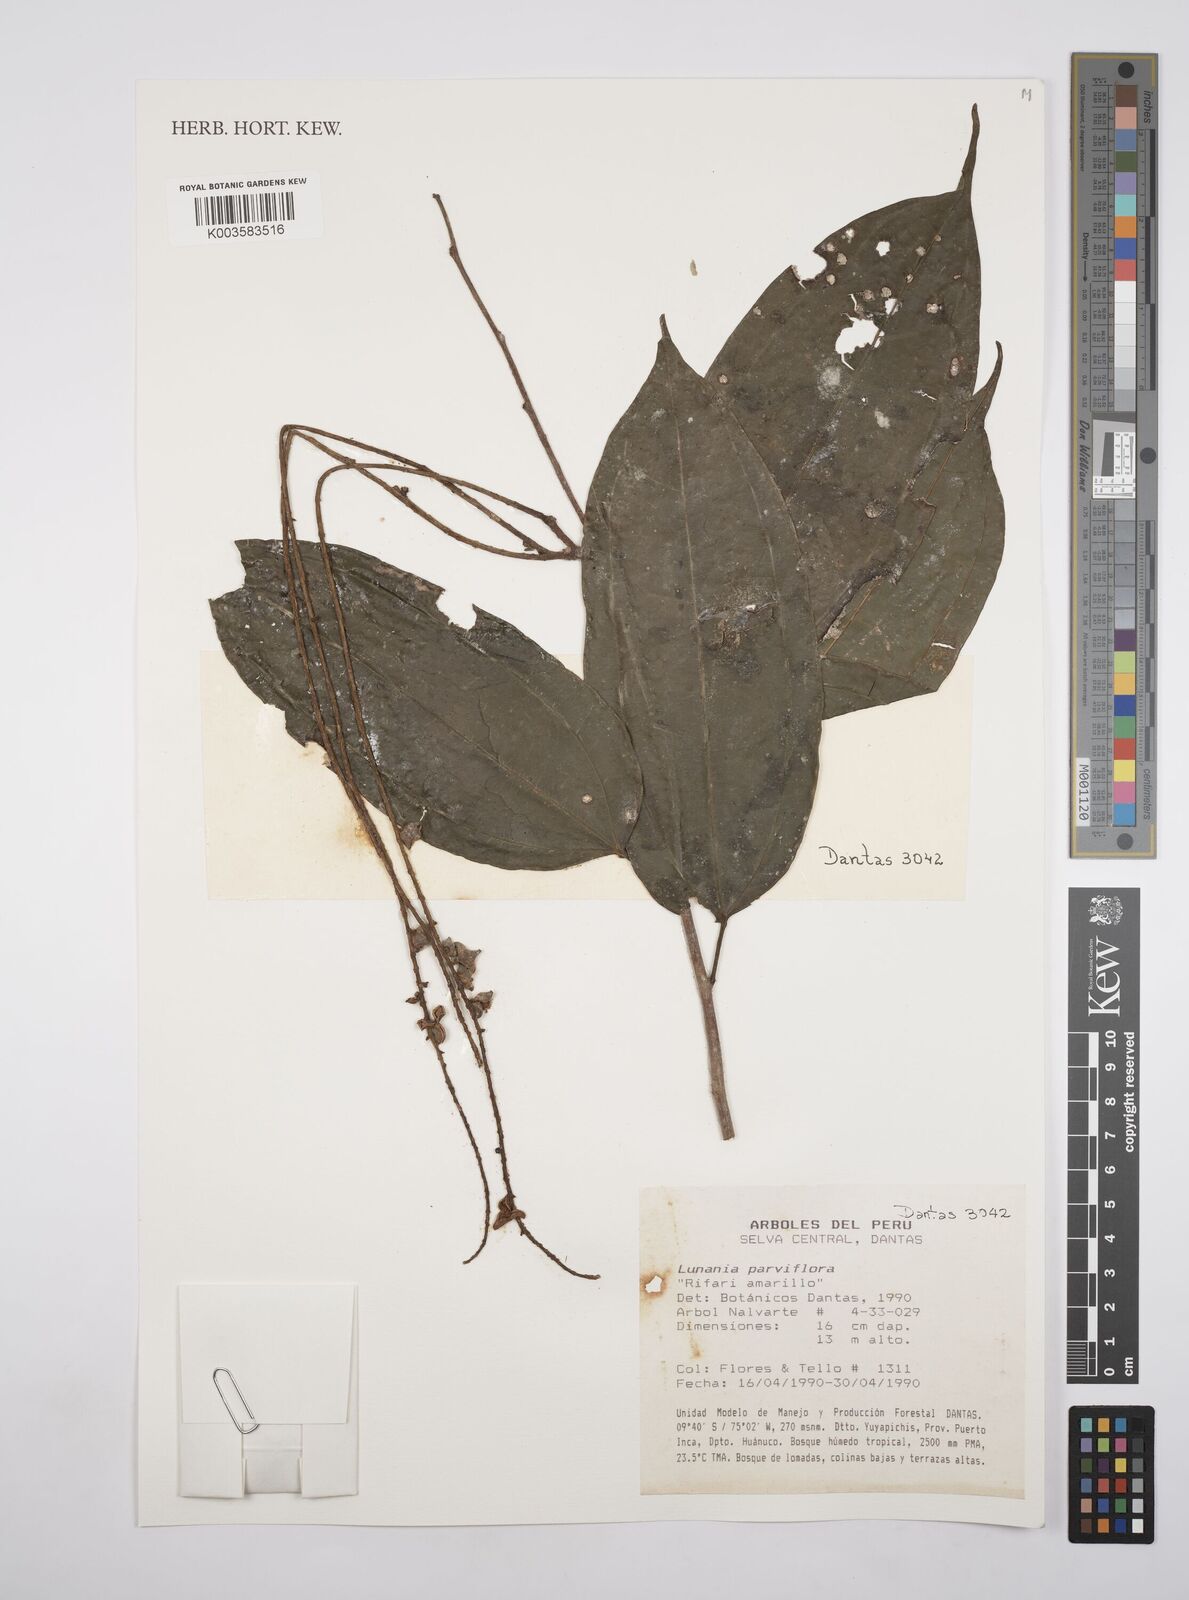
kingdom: Plantae
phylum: Tracheophyta
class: Magnoliopsida
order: Malpighiales
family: Salicaceae
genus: Lunania
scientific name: Lunania parviflora
